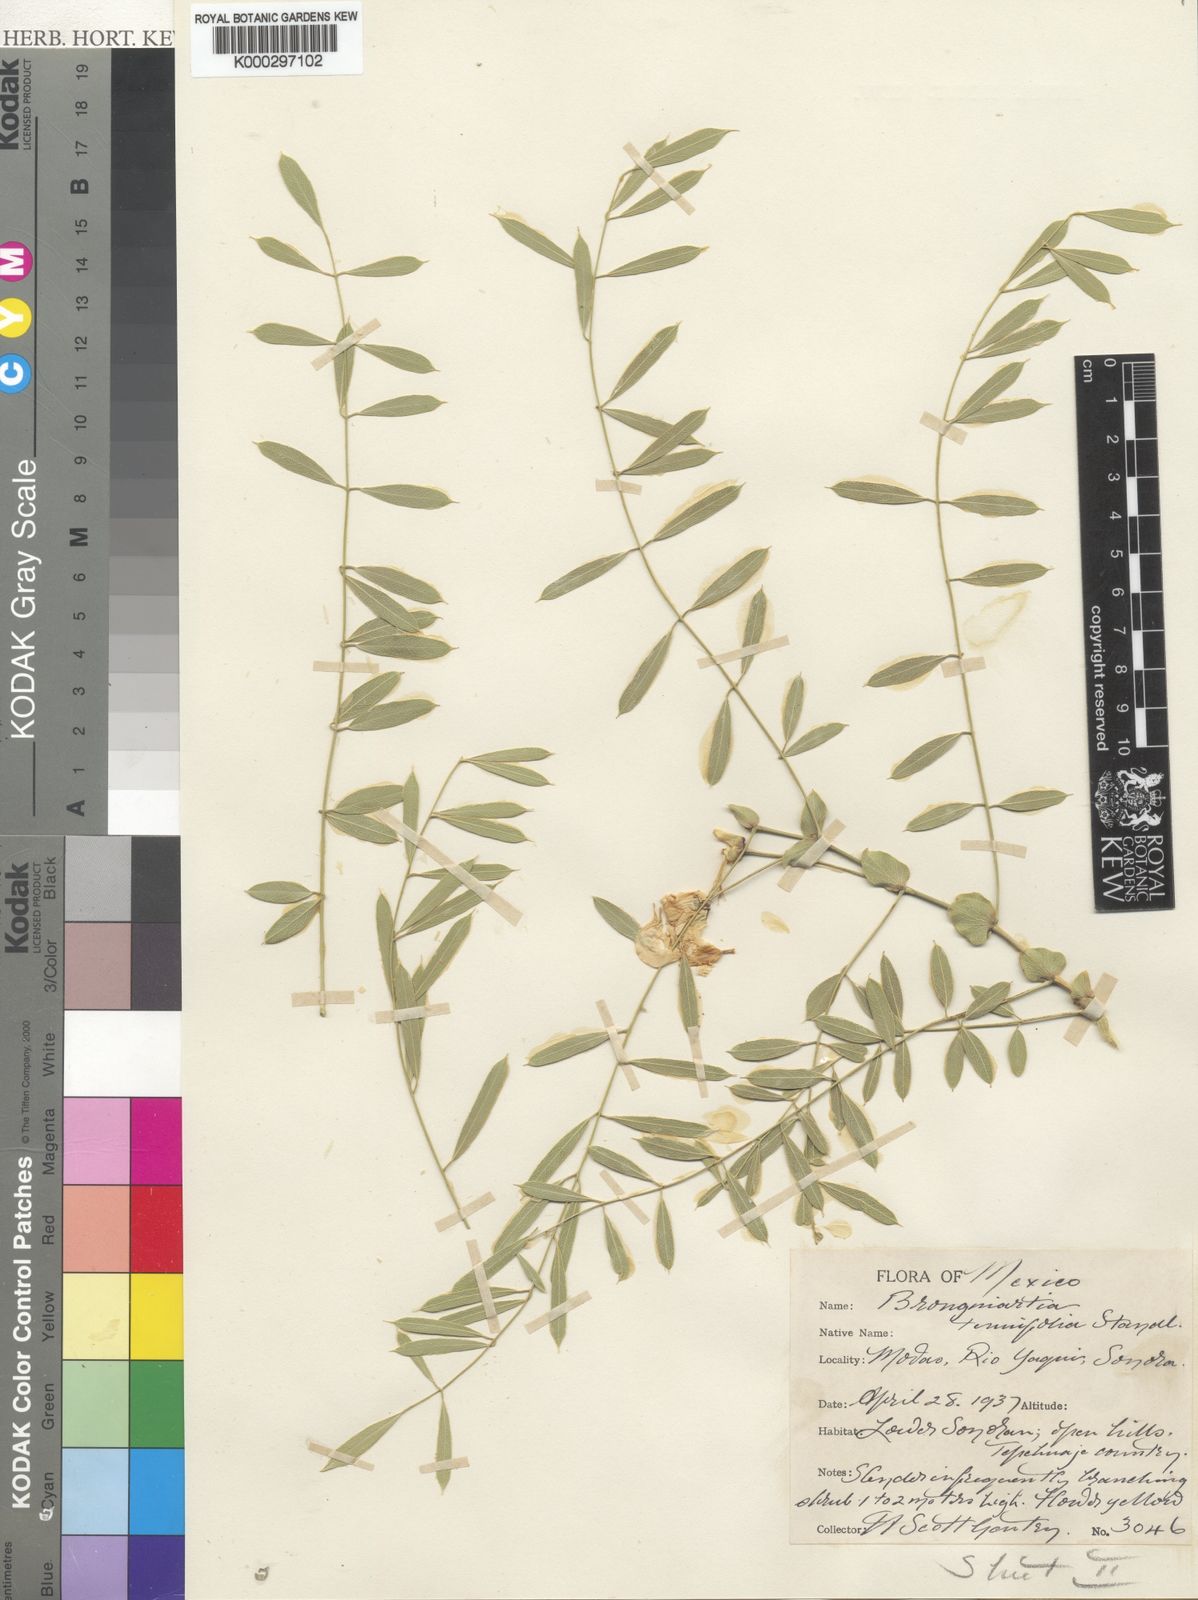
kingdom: Plantae
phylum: Tracheophyta
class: Magnoliopsida
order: Fabales
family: Fabaceae
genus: Brongniartia
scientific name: Brongniartia tenuifolia
